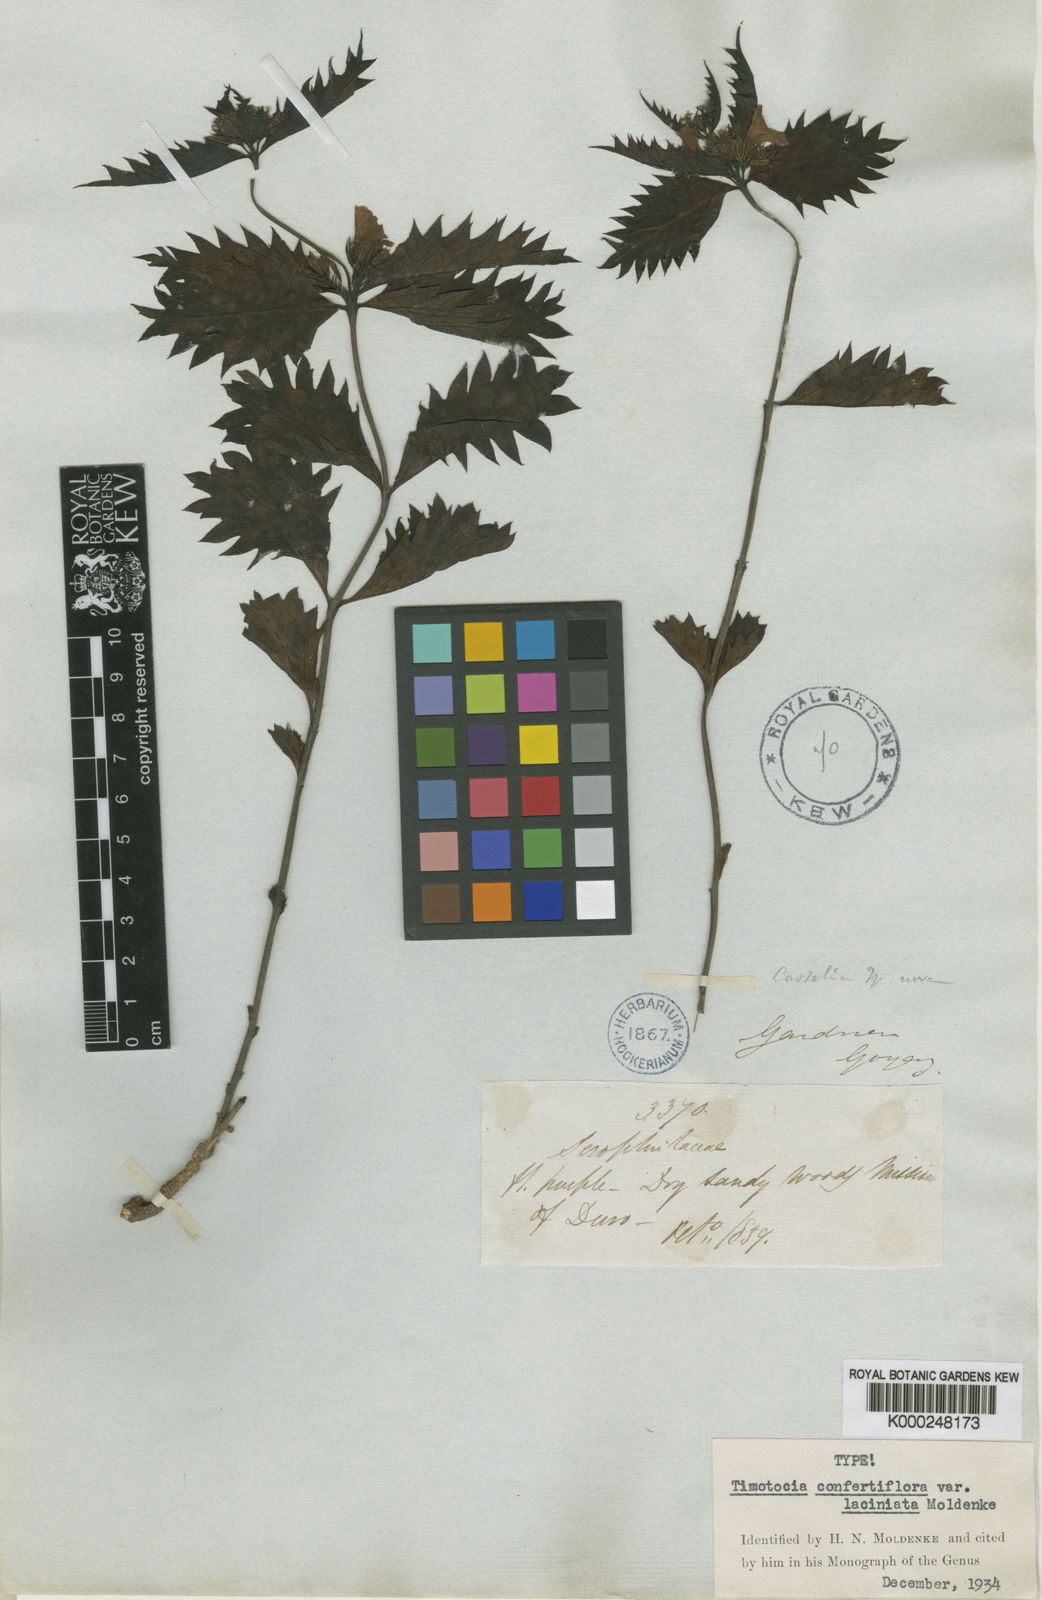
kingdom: Plantae
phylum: Tracheophyta
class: Magnoliopsida
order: Lamiales
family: Verbenaceae
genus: Casselia
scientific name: Casselia confertiflora
